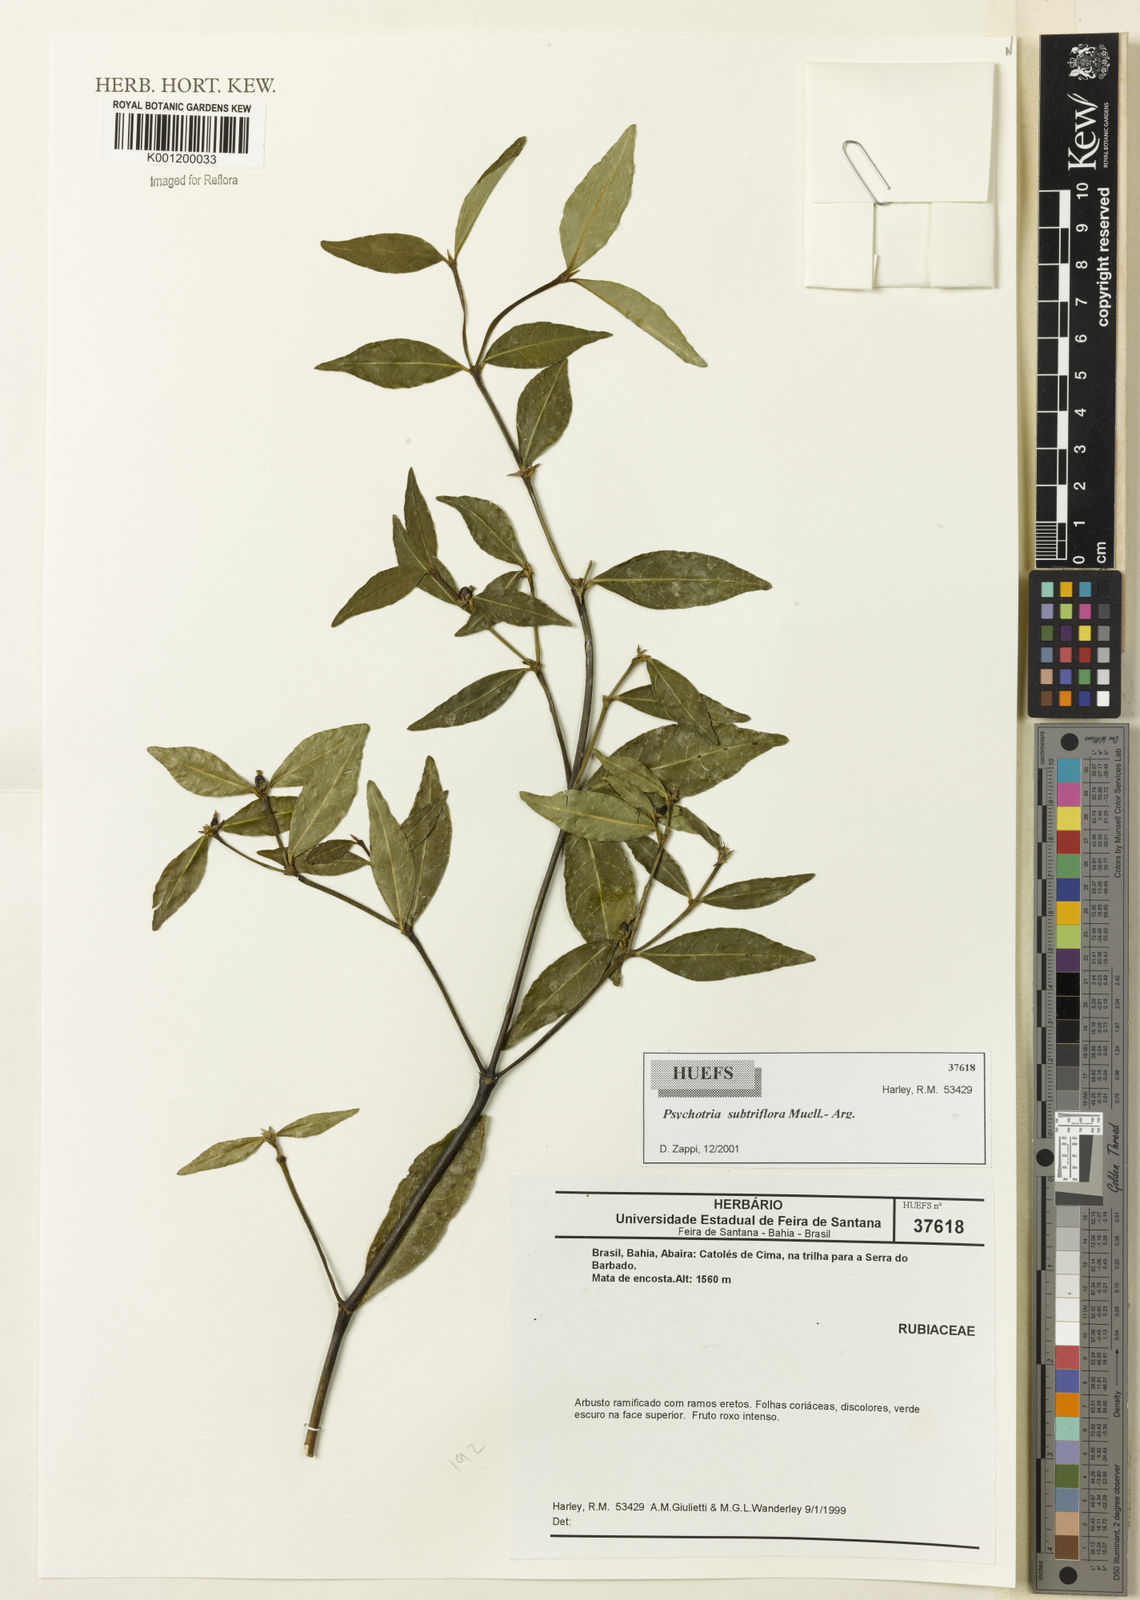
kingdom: Plantae
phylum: Tracheophyta
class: Magnoliopsida
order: Gentianales
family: Rubiaceae
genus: Psychotria
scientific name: Psychotria
